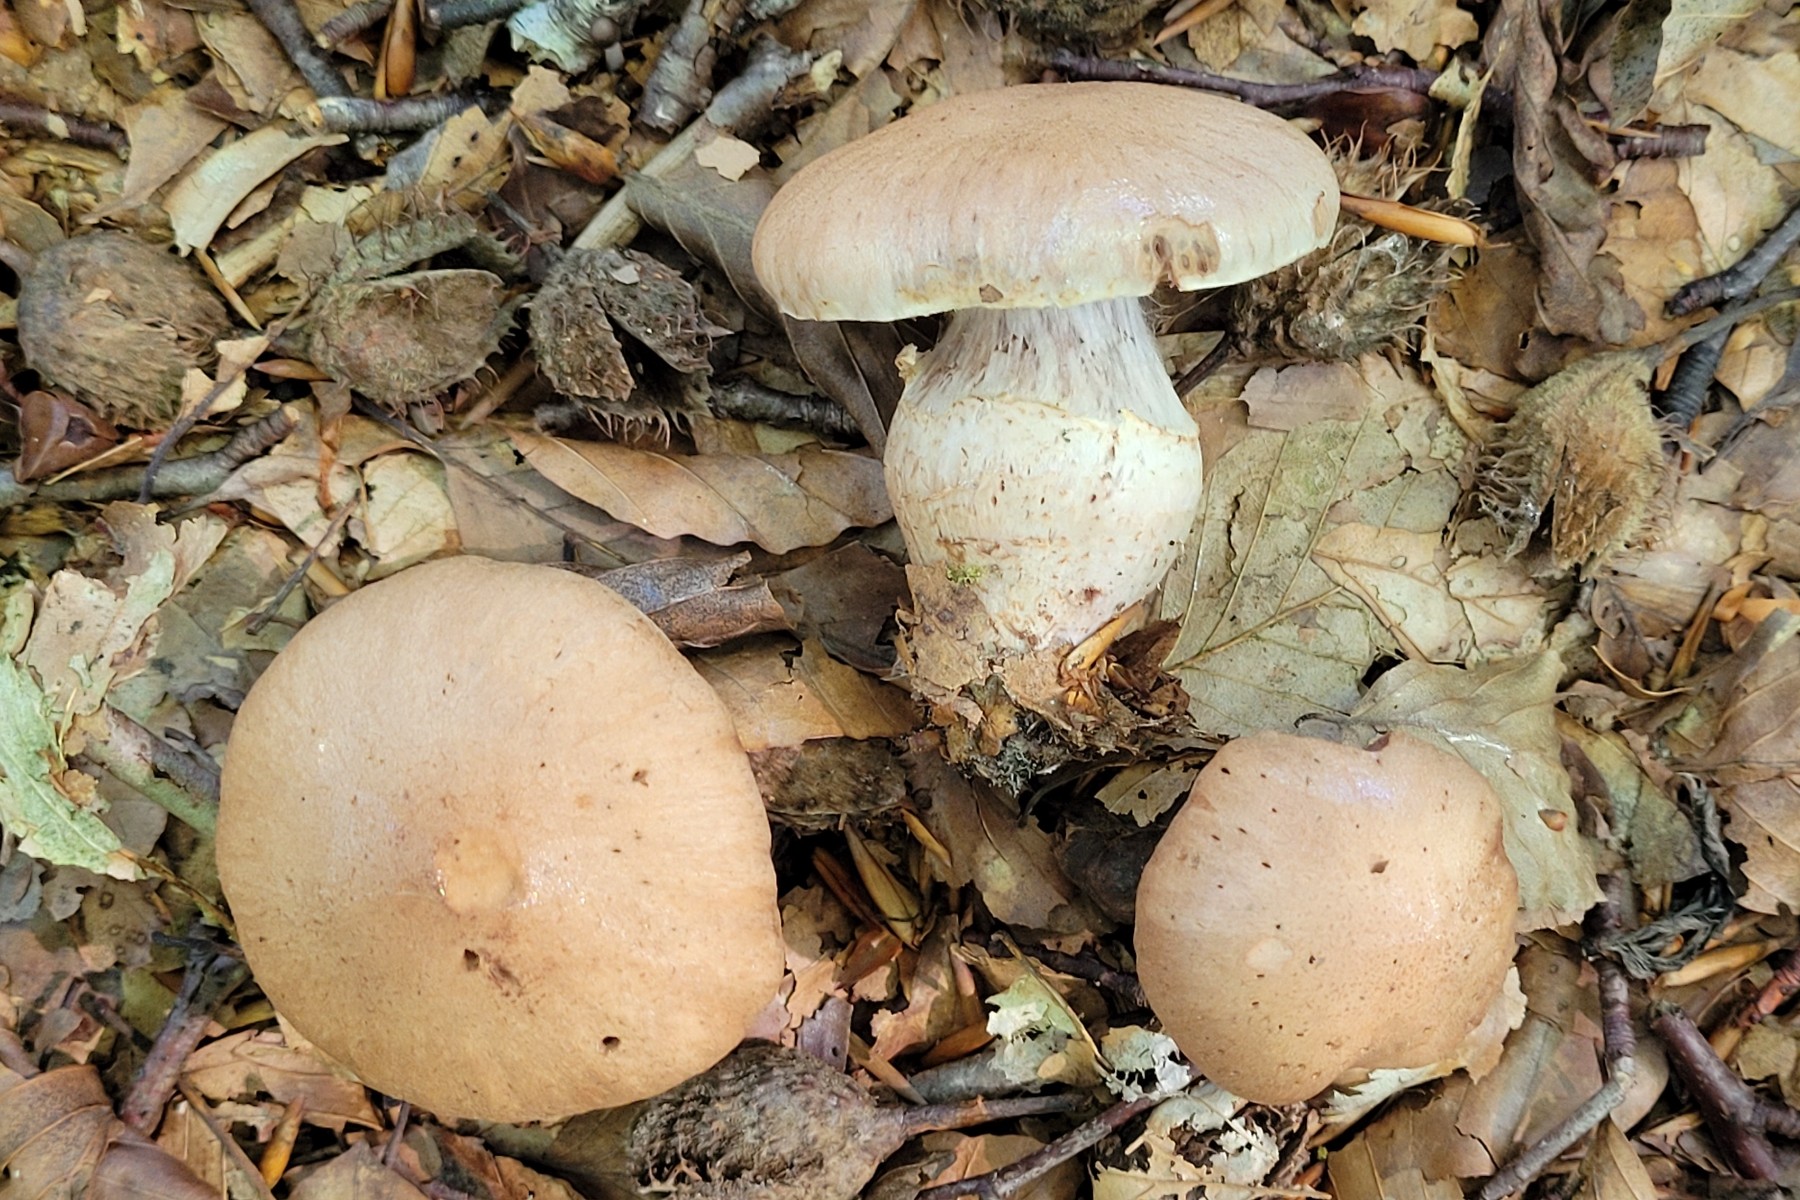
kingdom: Fungi
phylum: Basidiomycota
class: Agaricomycetes
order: Agaricales
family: Cortinariaceae
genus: Cortinarius
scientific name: Cortinarius torvus
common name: champignonagtig slørhat
